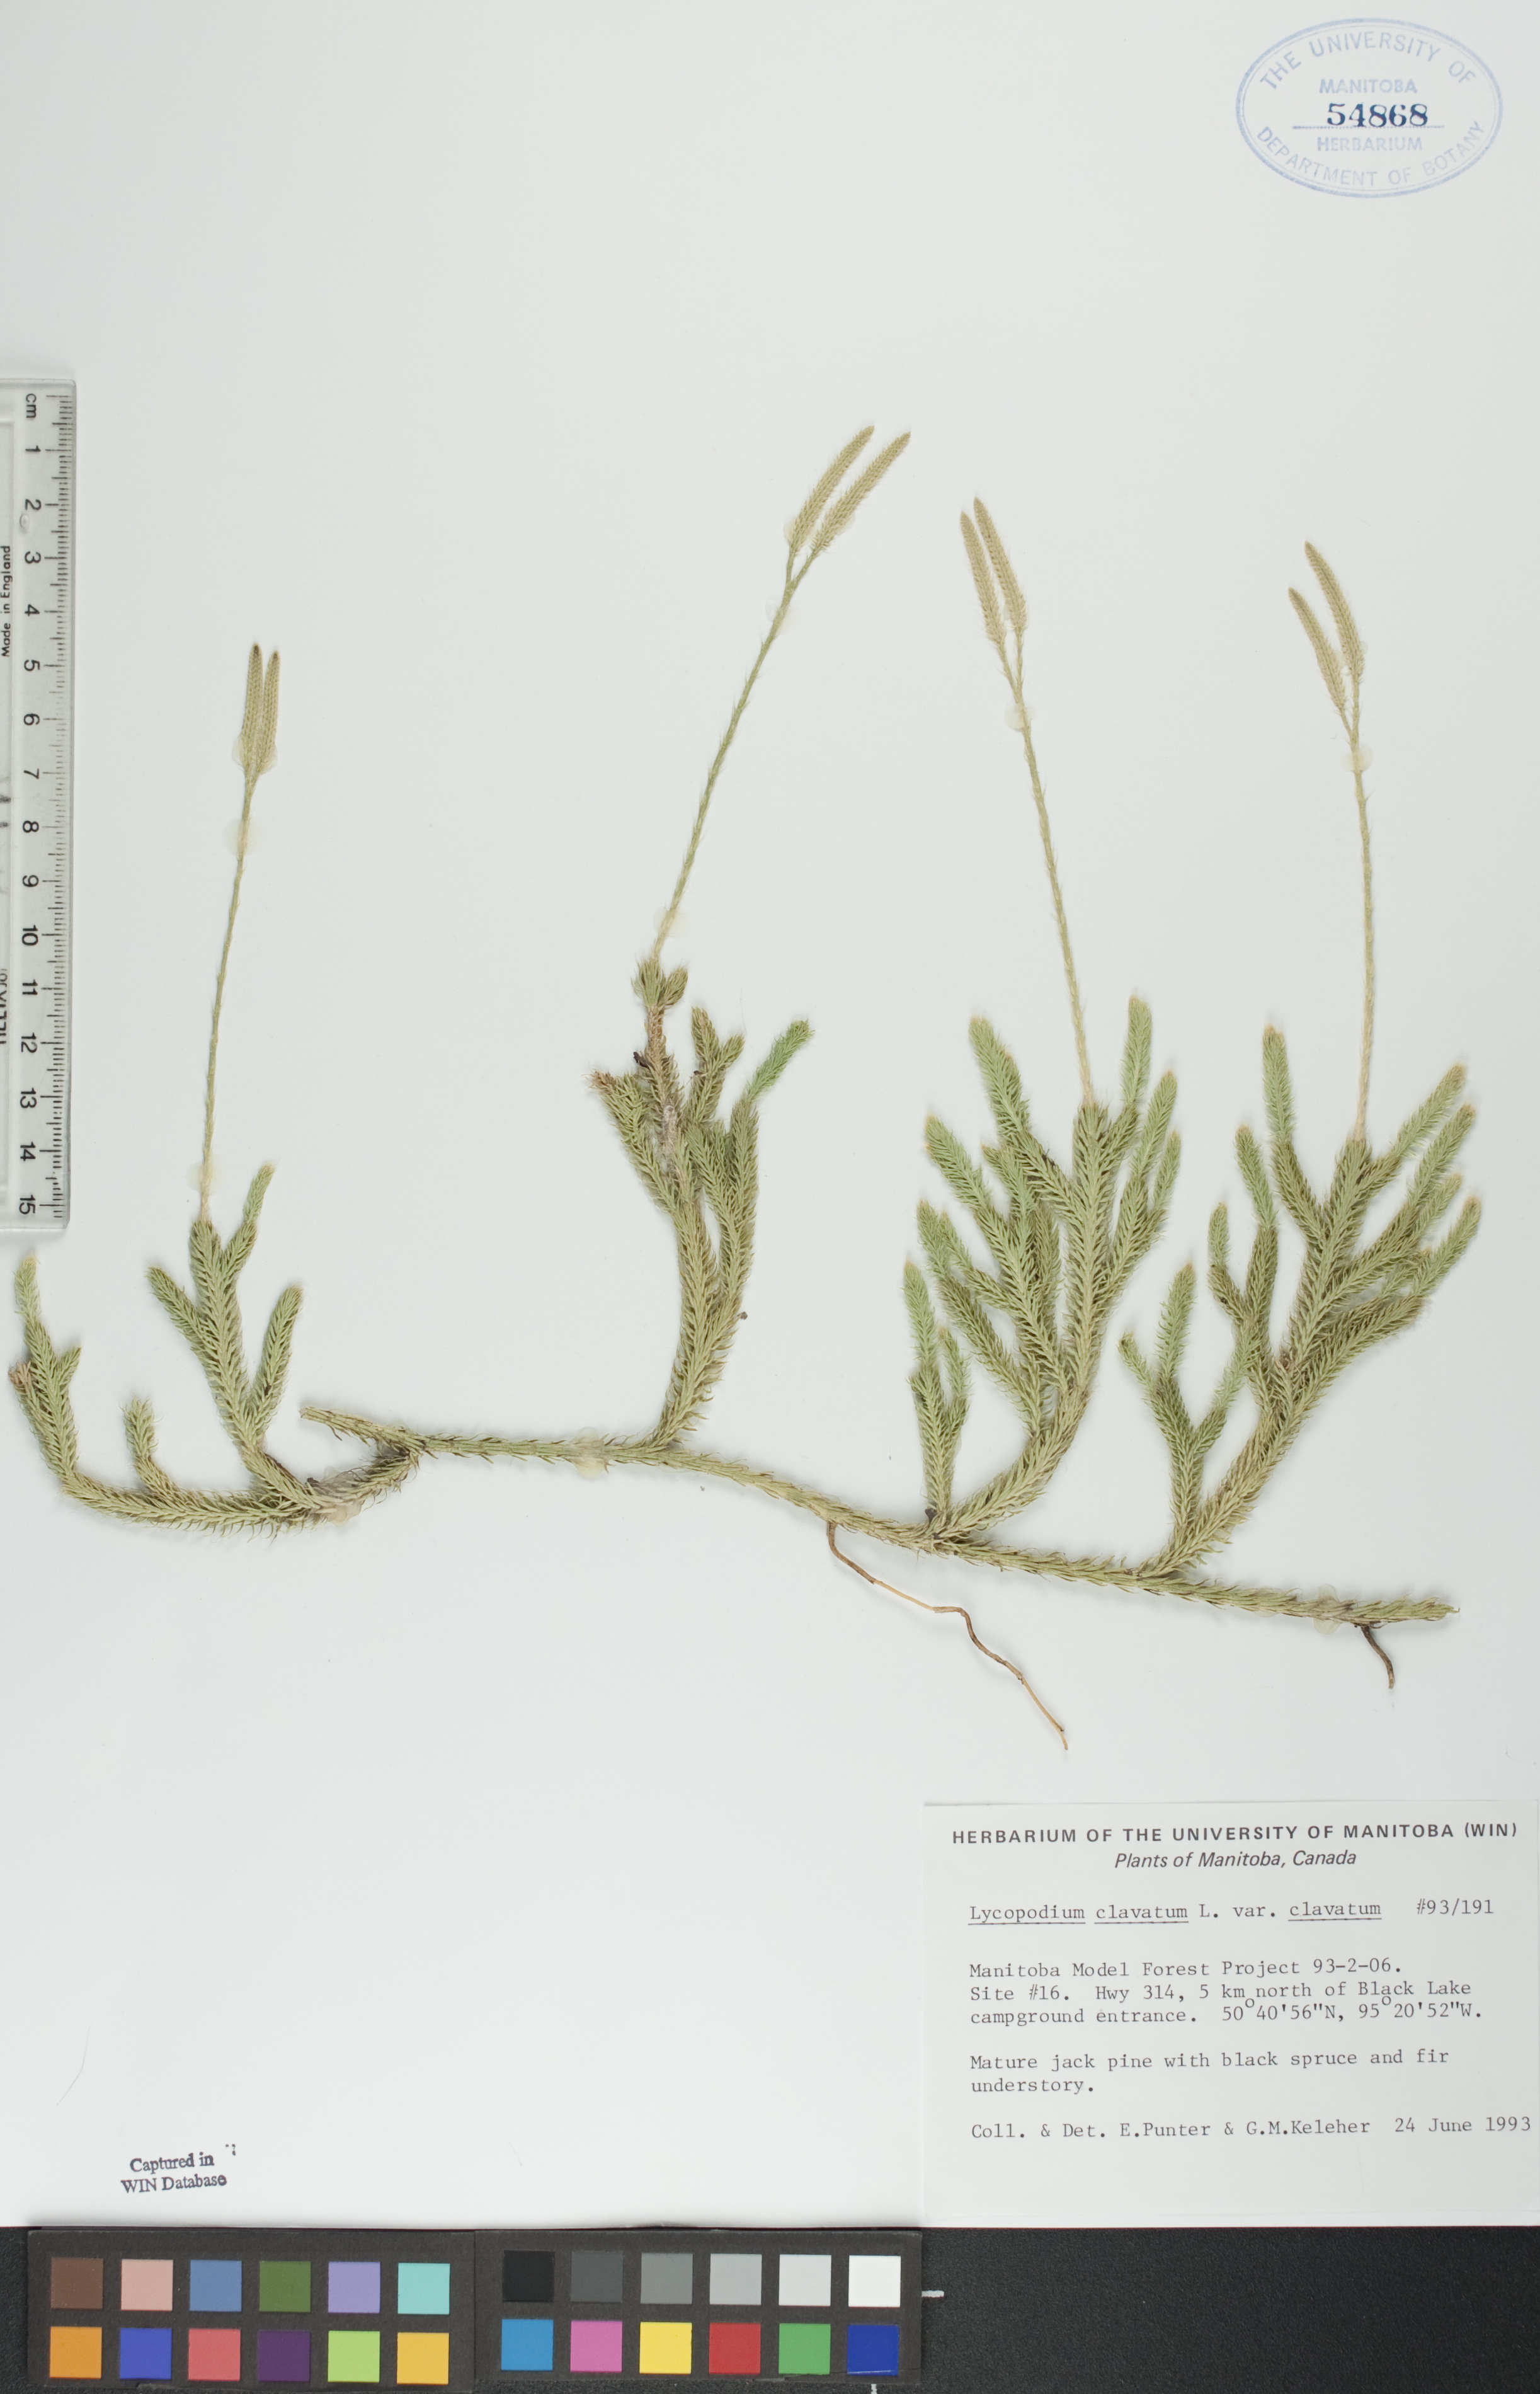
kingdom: Plantae
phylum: Tracheophyta
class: Lycopodiopsida
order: Lycopodiales
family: Lycopodiaceae
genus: Lycopodium
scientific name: Lycopodium clavatum
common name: Stag's-horn clubmoss
